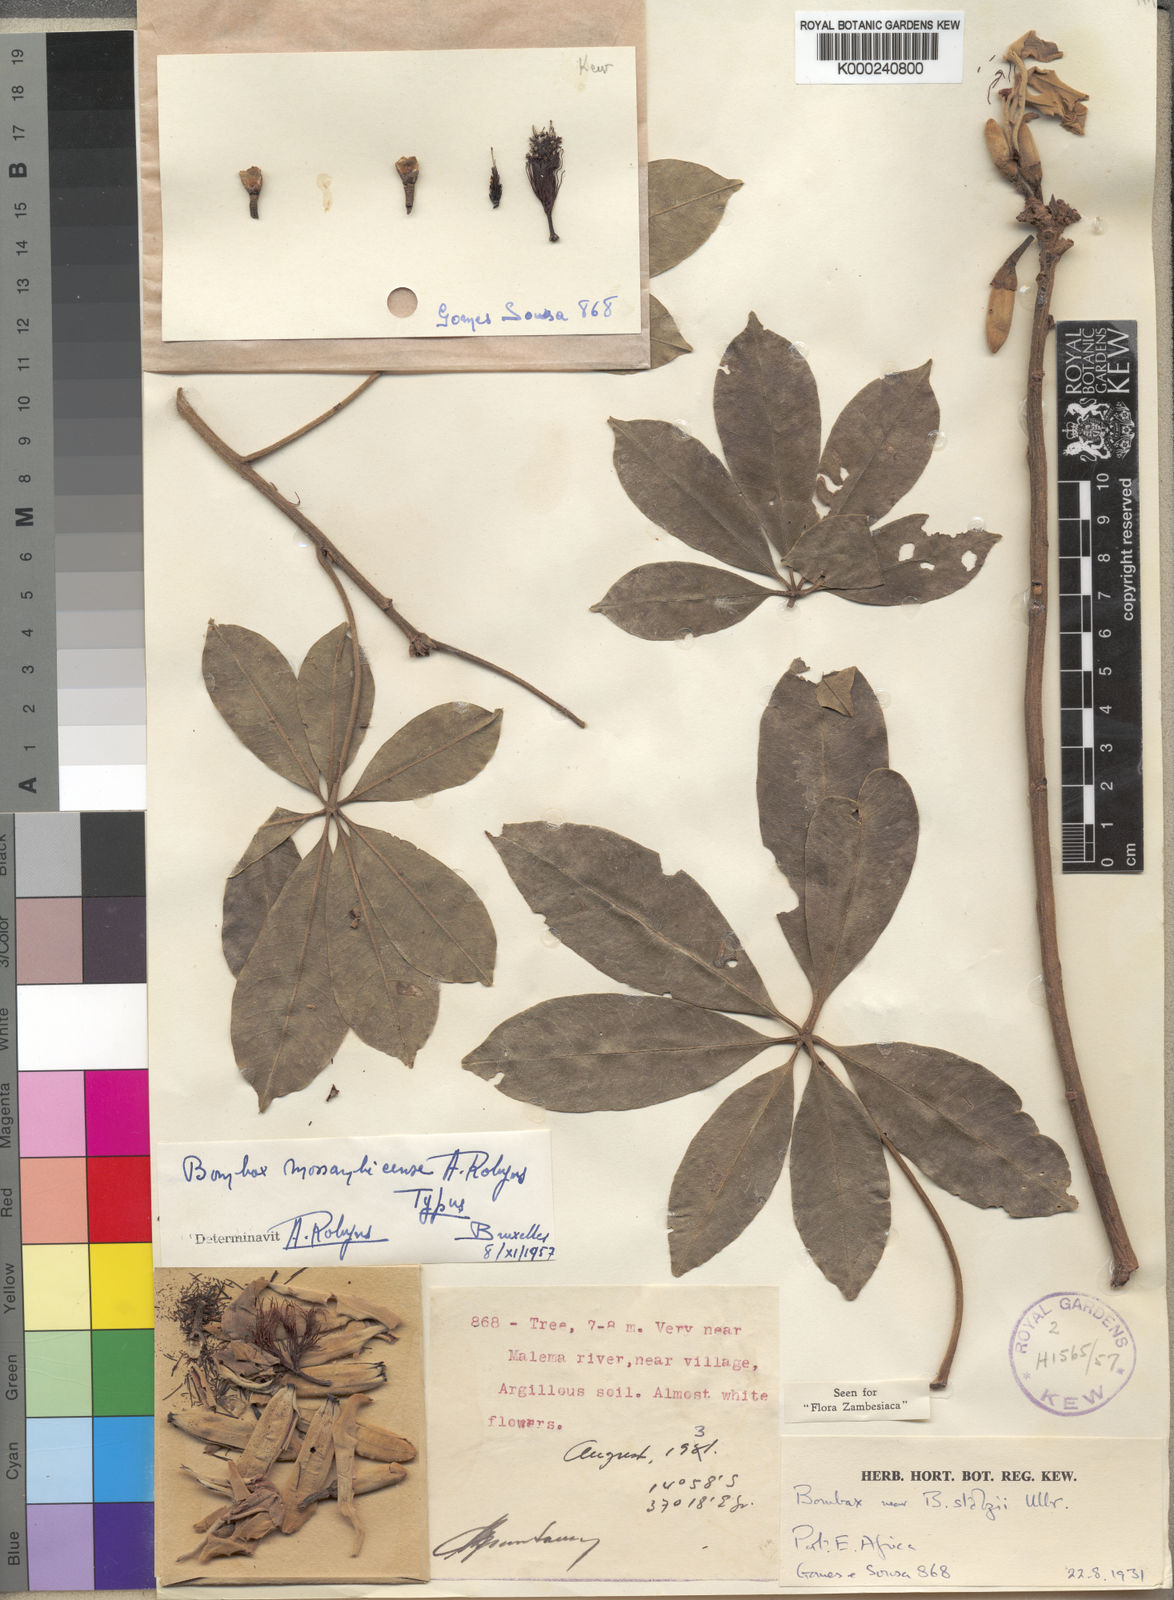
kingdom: Plantae
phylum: Tracheophyta
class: Magnoliopsida
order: Malvales
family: Malvaceae
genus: Rhodognaphalon
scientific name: Rhodognaphalon stolzii
